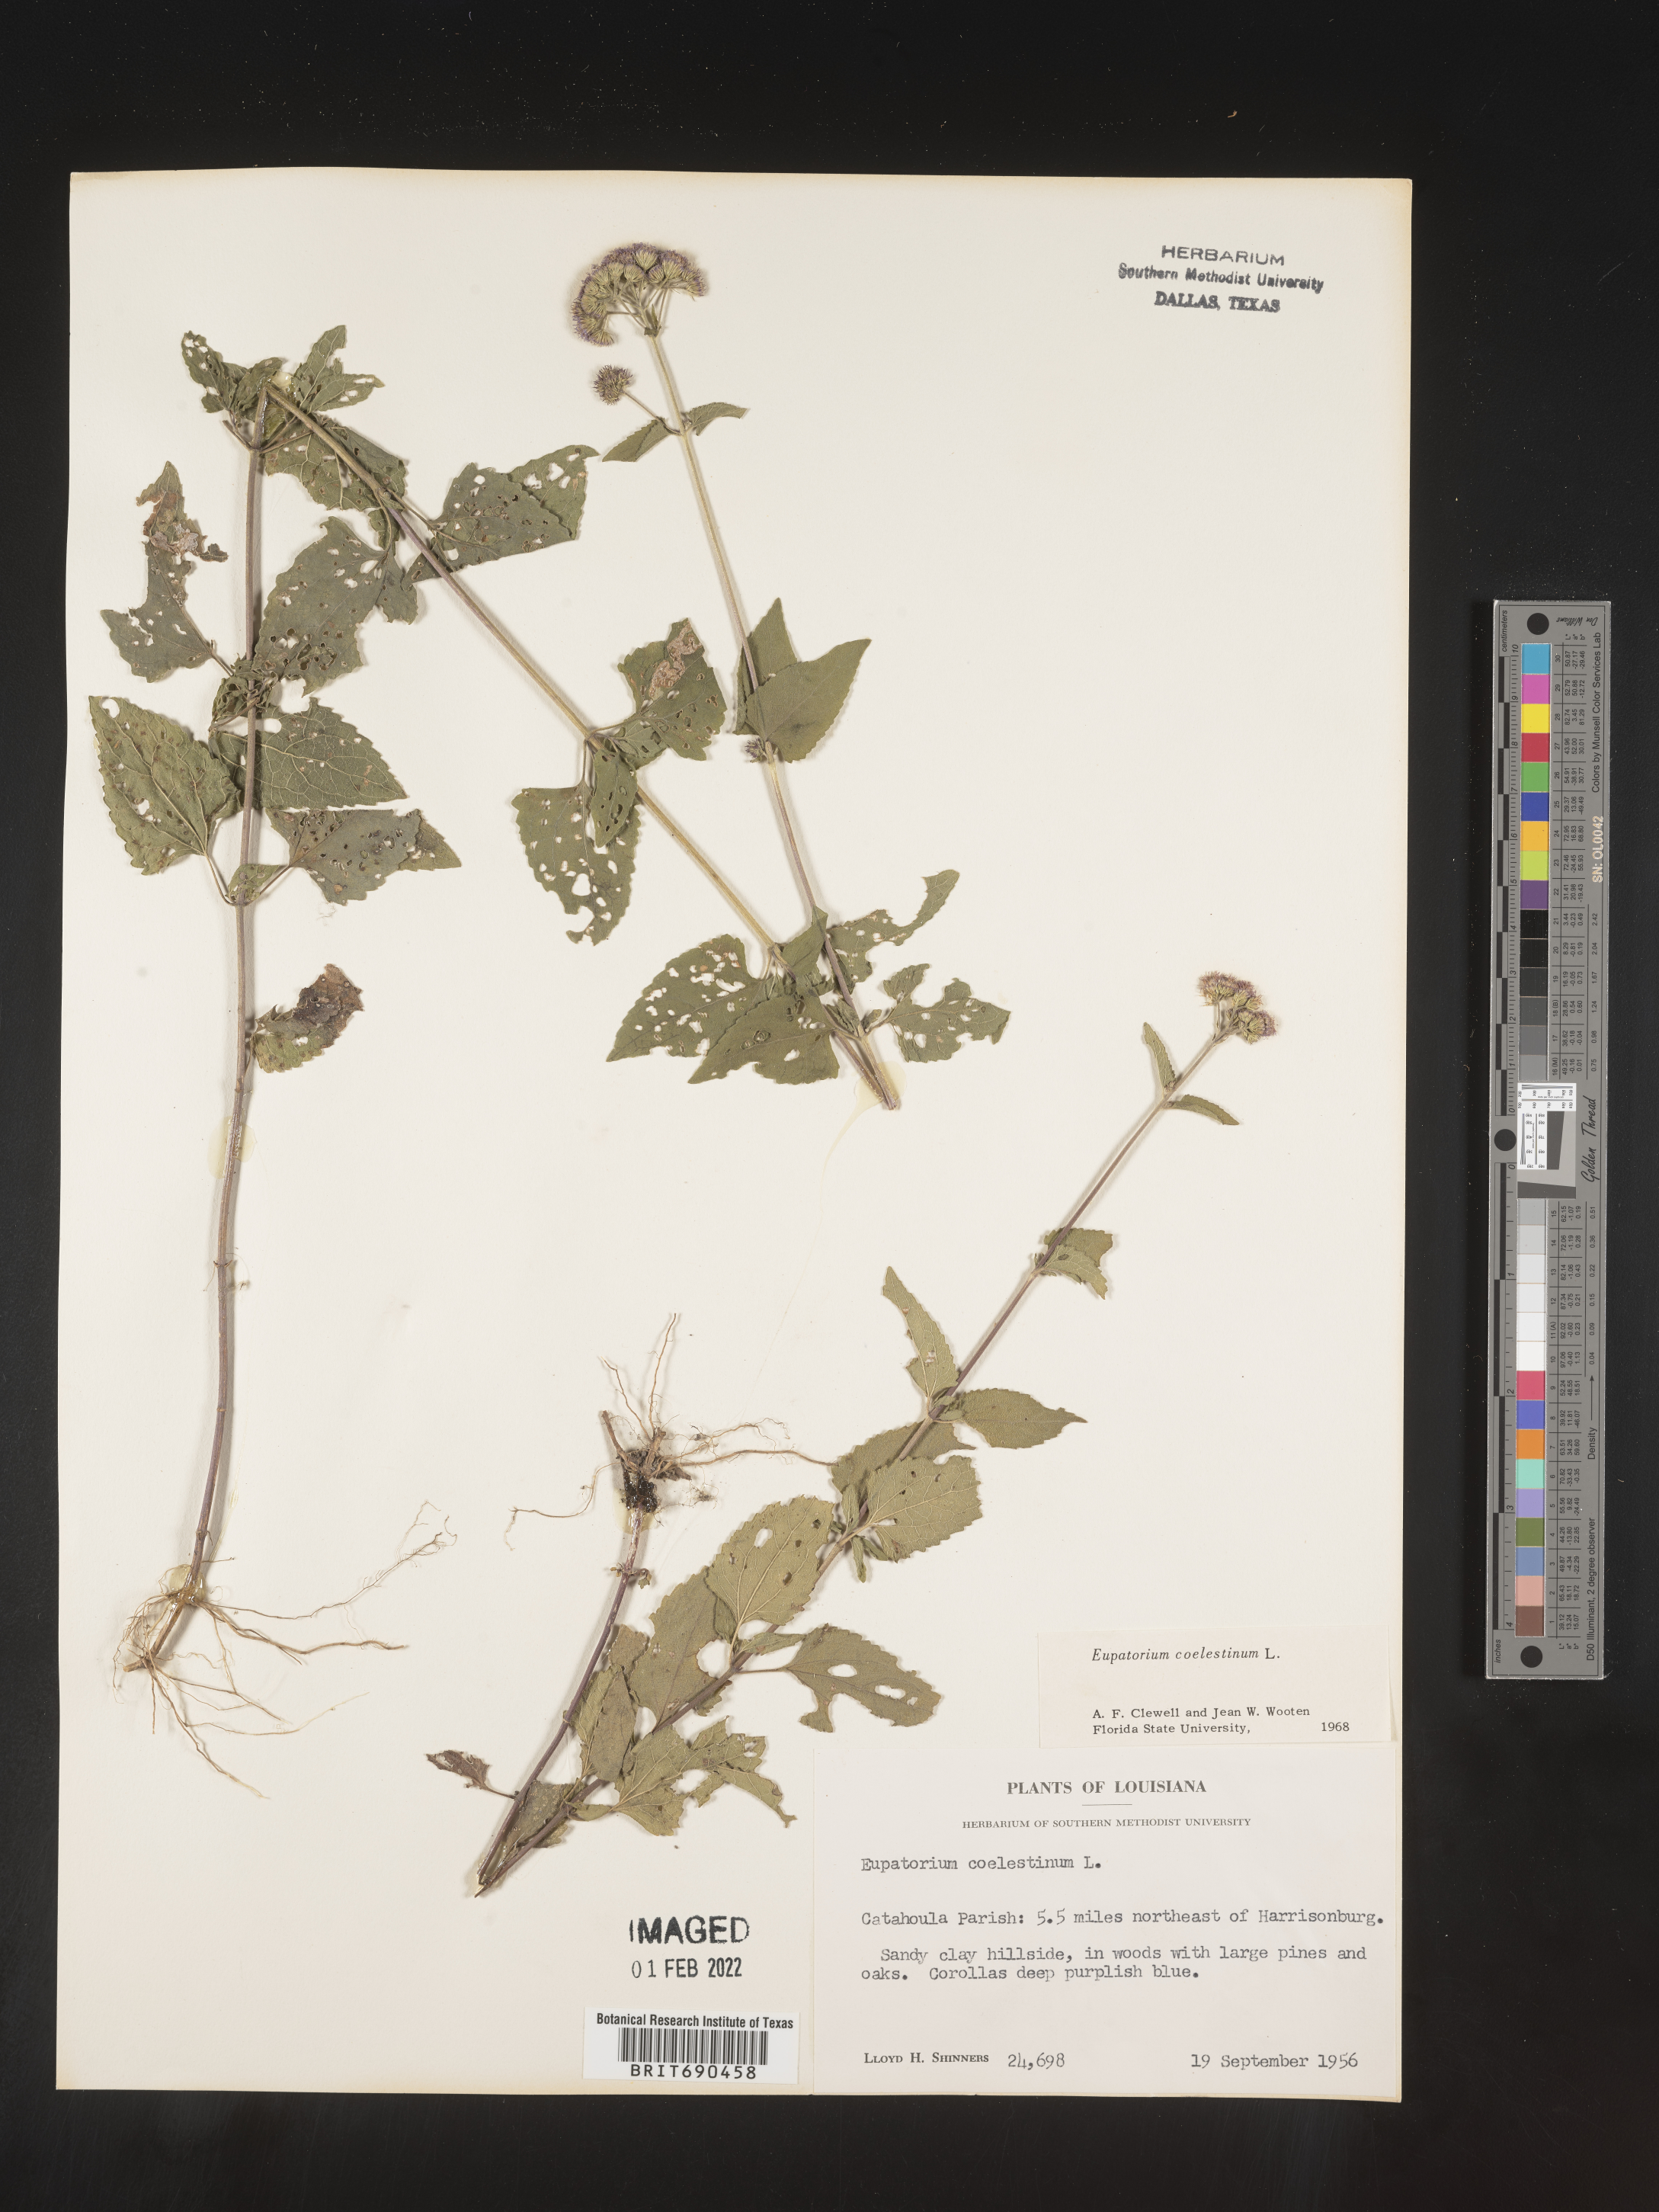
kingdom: Plantae
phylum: Tracheophyta
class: Magnoliopsida
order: Asterales
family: Asteraceae
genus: Conoclinium
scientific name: Conoclinium coelestinum
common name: Blue mistflower
